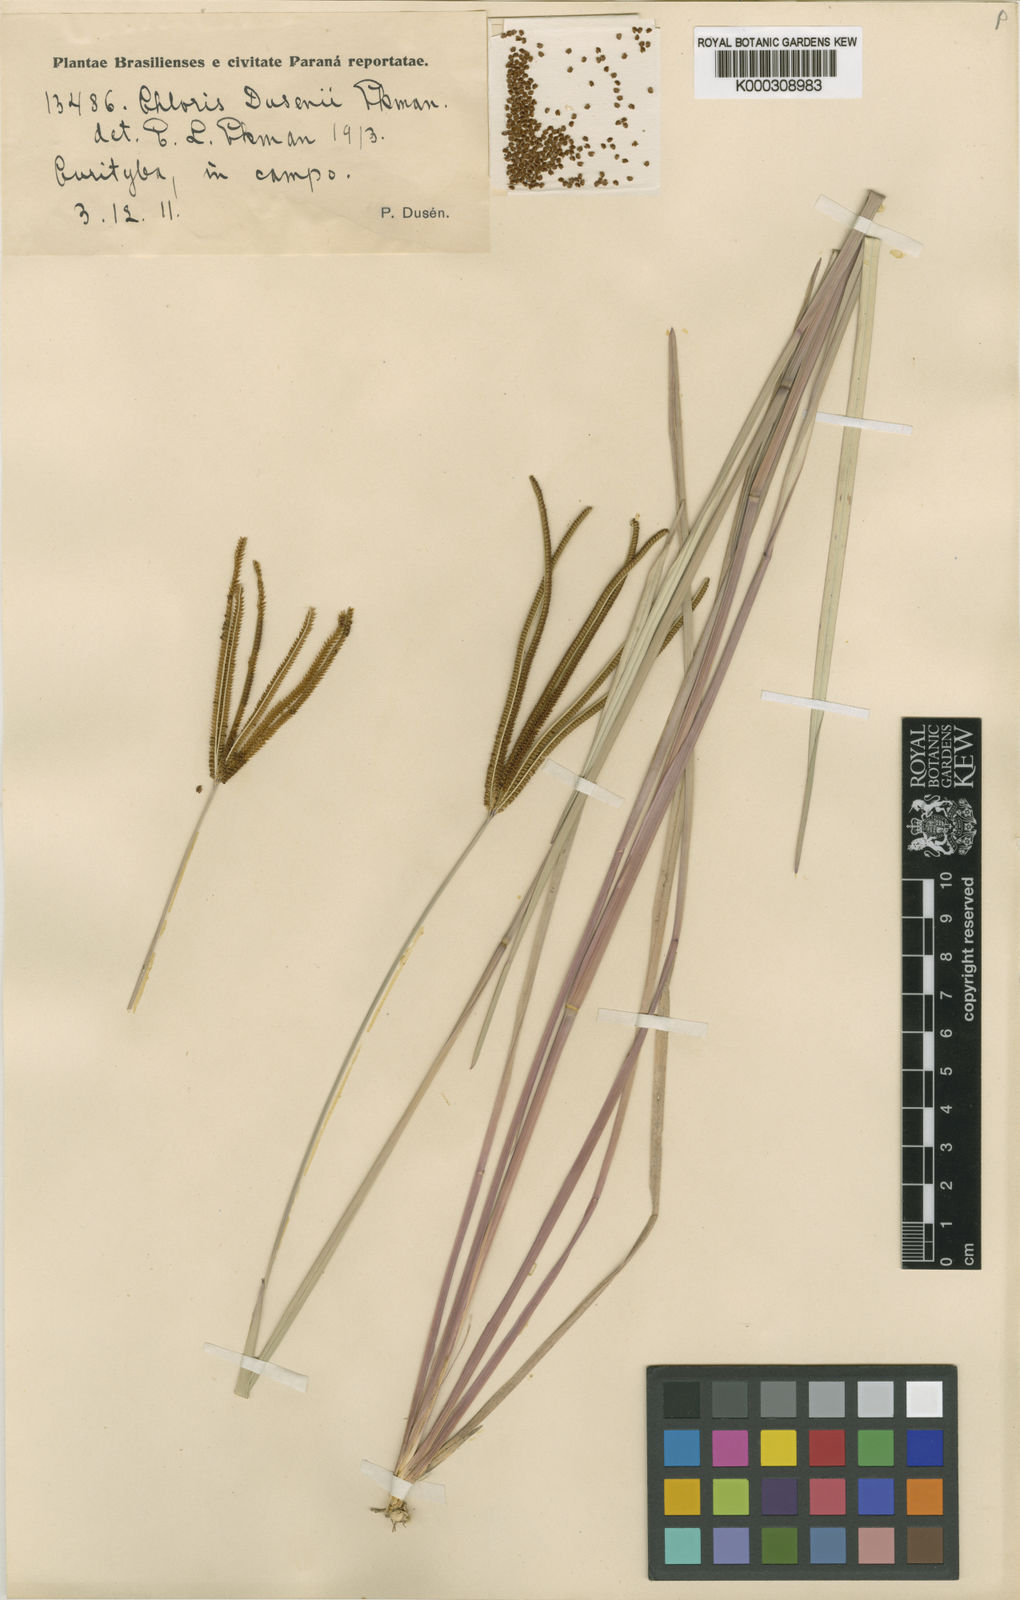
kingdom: Plantae
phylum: Tracheophyta
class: Liliopsida
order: Poales
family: Poaceae
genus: Eustachys
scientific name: Eustachys petraea
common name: Pinewoods fingergrass
